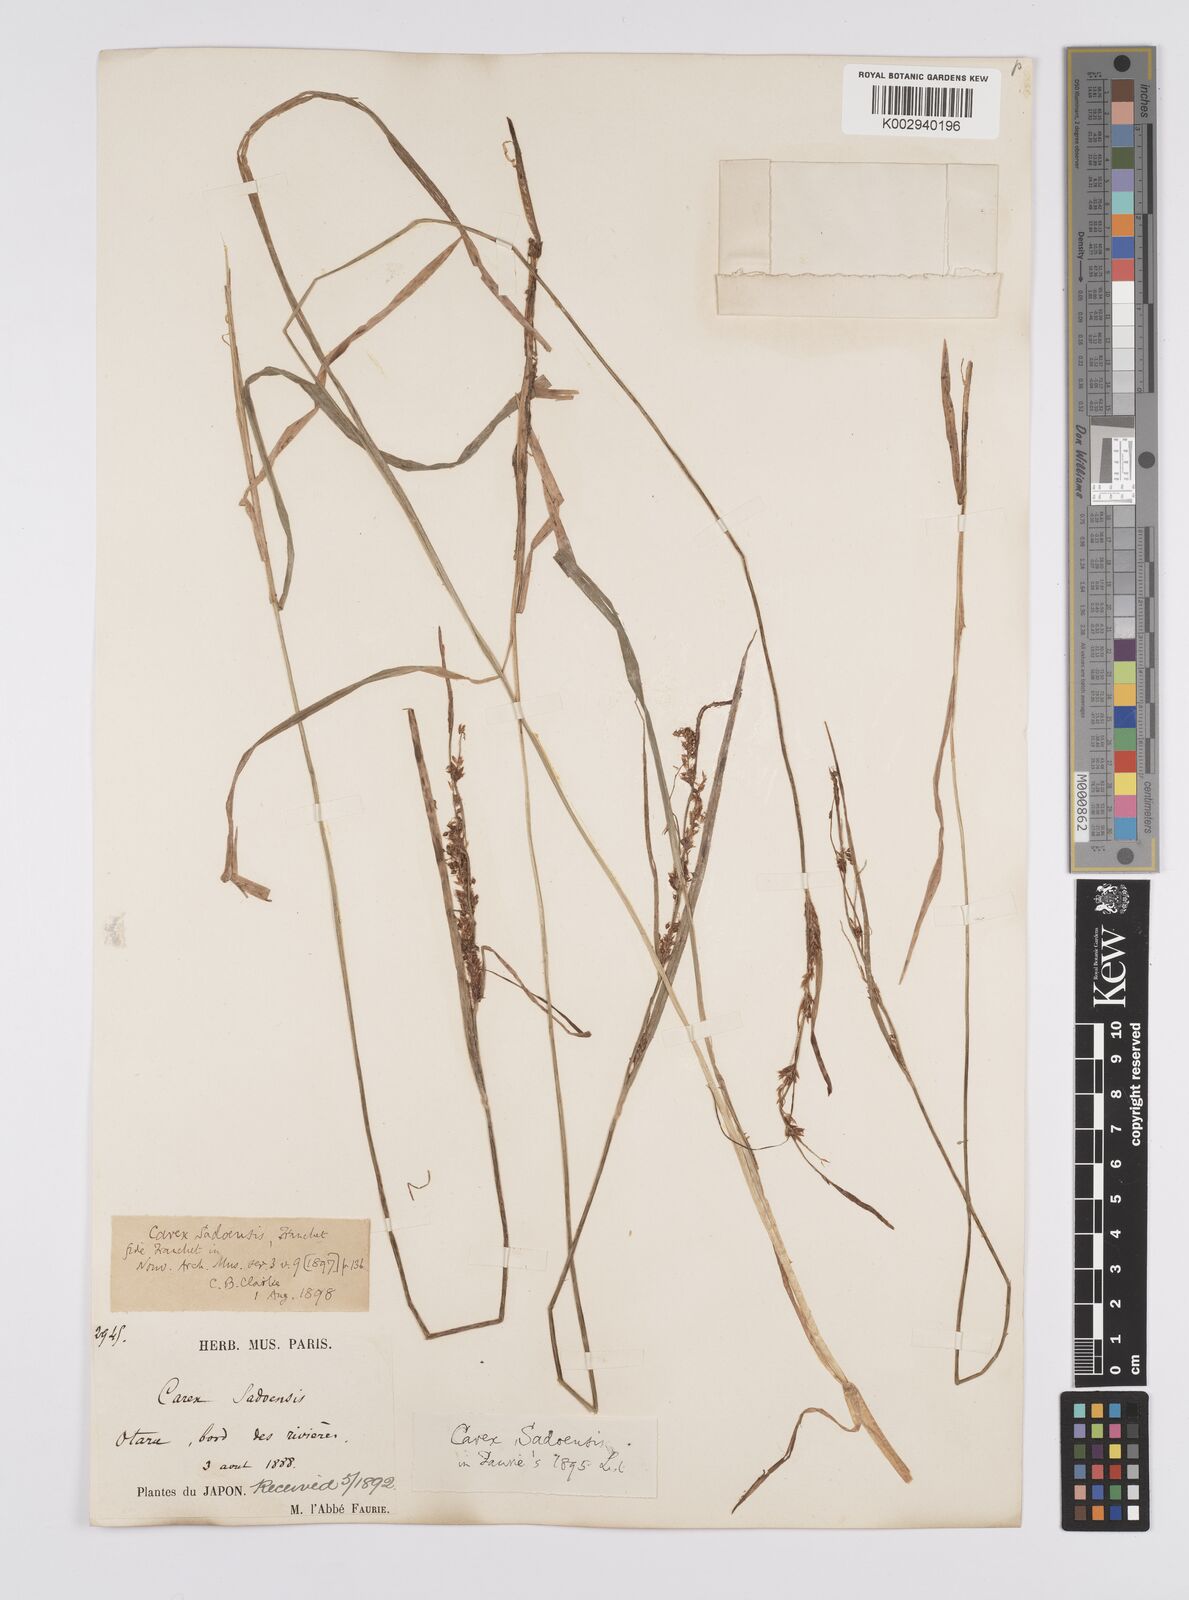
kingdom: Plantae
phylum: Tracheophyta
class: Liliopsida
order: Poales
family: Cyperaceae
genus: Carex
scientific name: Carex sadoensis
